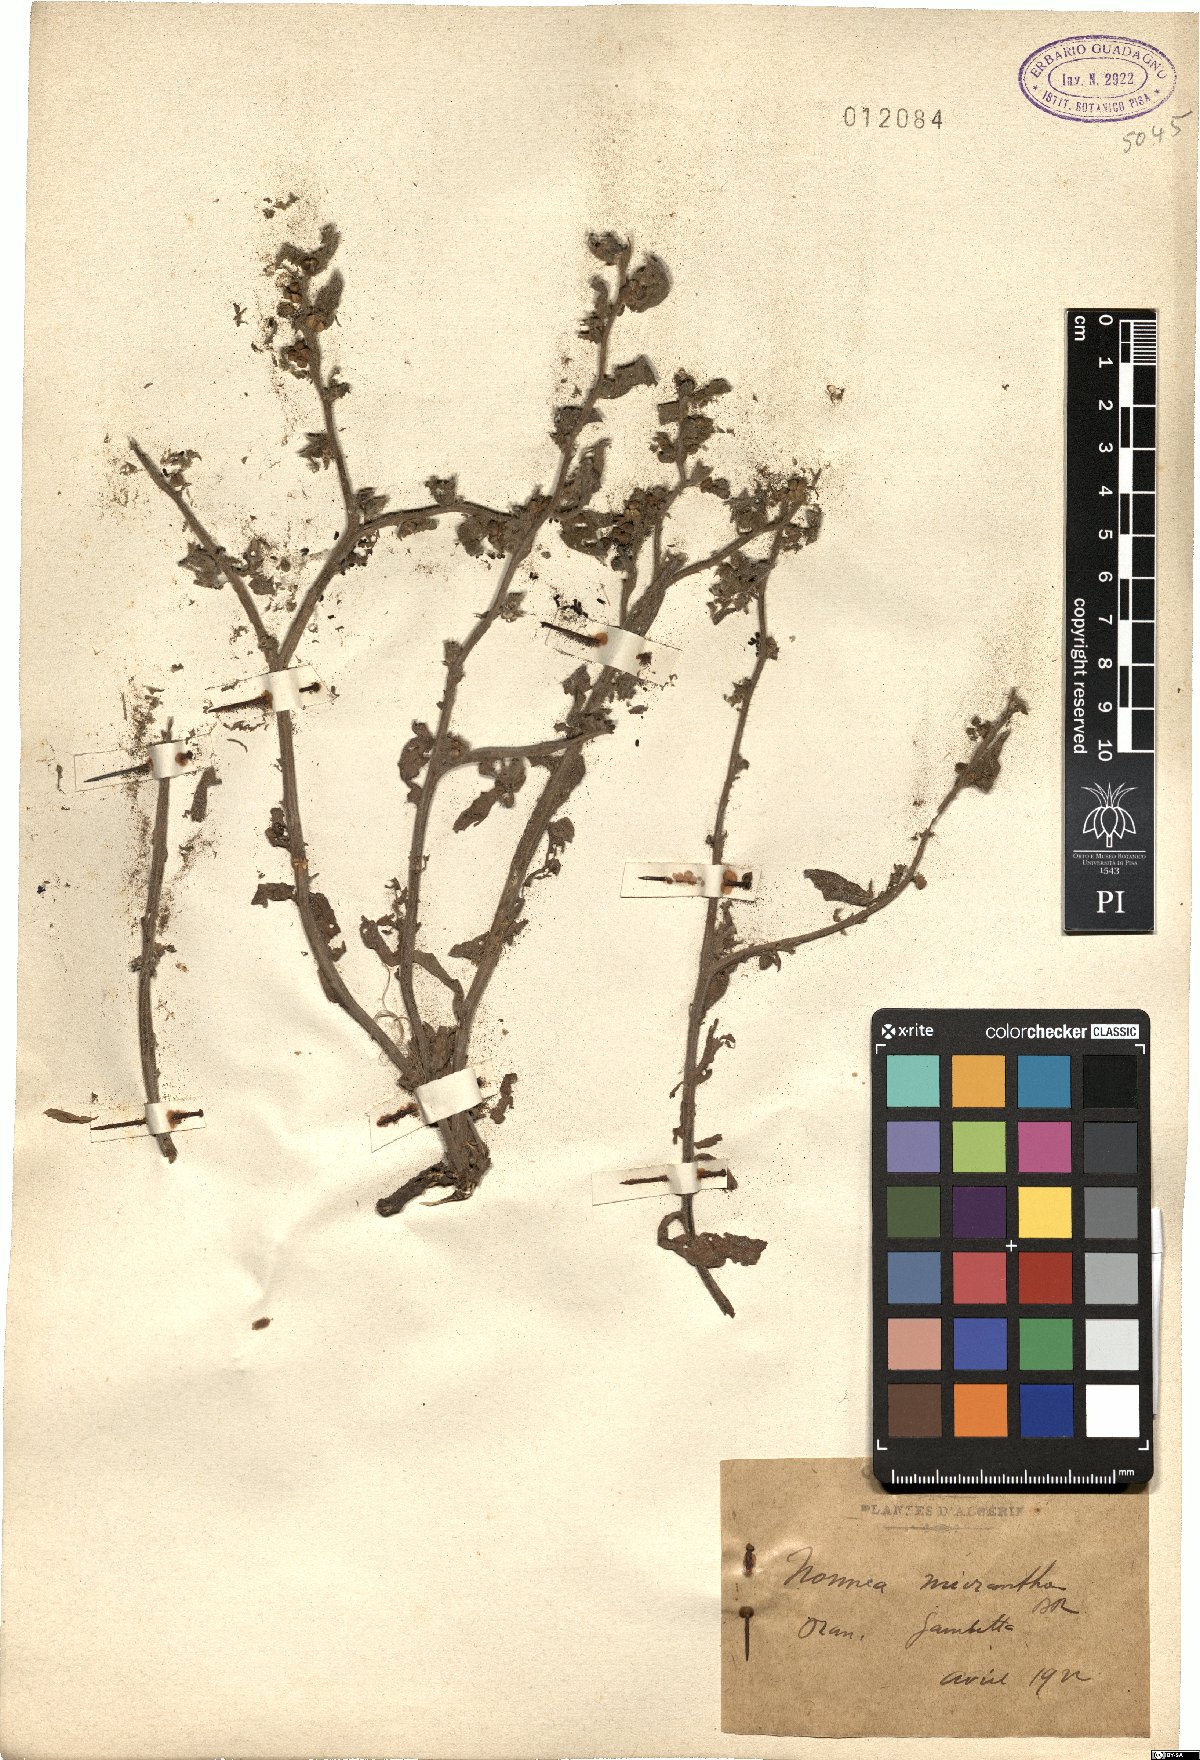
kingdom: Plantae
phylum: Tracheophyta
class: Magnoliopsida
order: Boraginales
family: Boraginaceae
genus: Nonea
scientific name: Nonea micrantha
